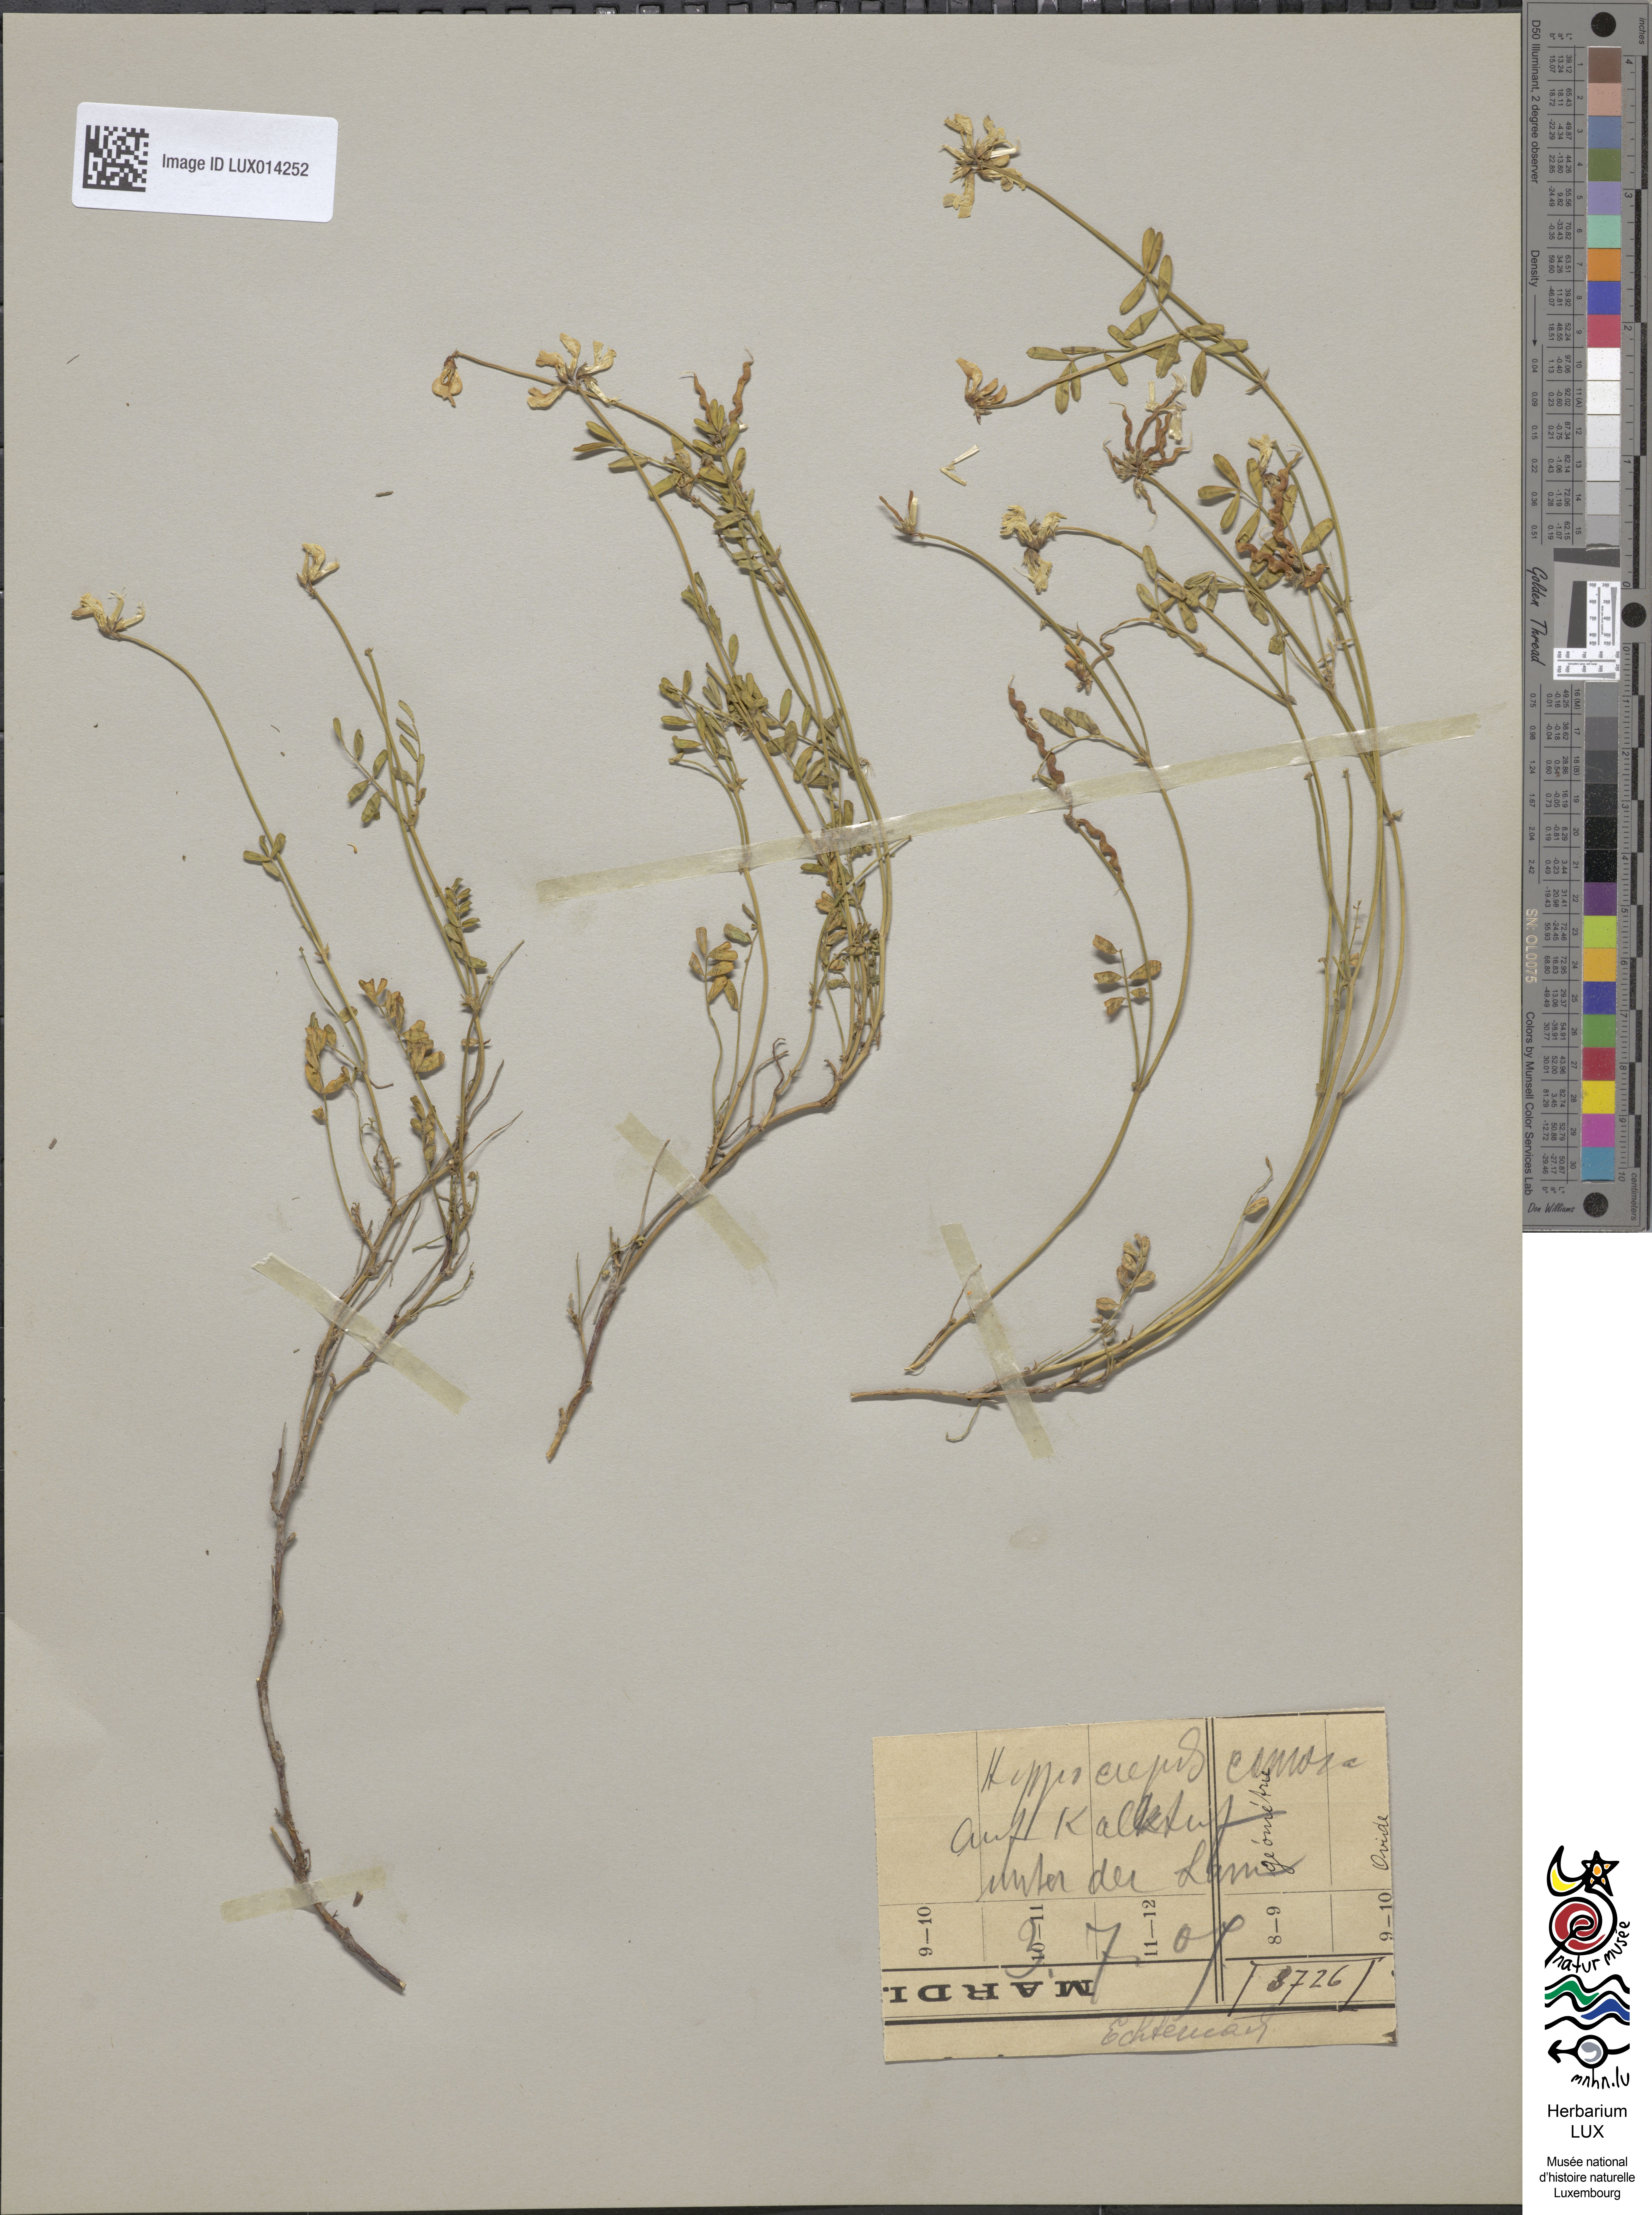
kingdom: Plantae
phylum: Tracheophyta
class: Magnoliopsida
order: Fabales
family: Fabaceae
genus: Hippocrepis
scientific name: Hippocrepis comosa
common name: Horseshoe vetch
